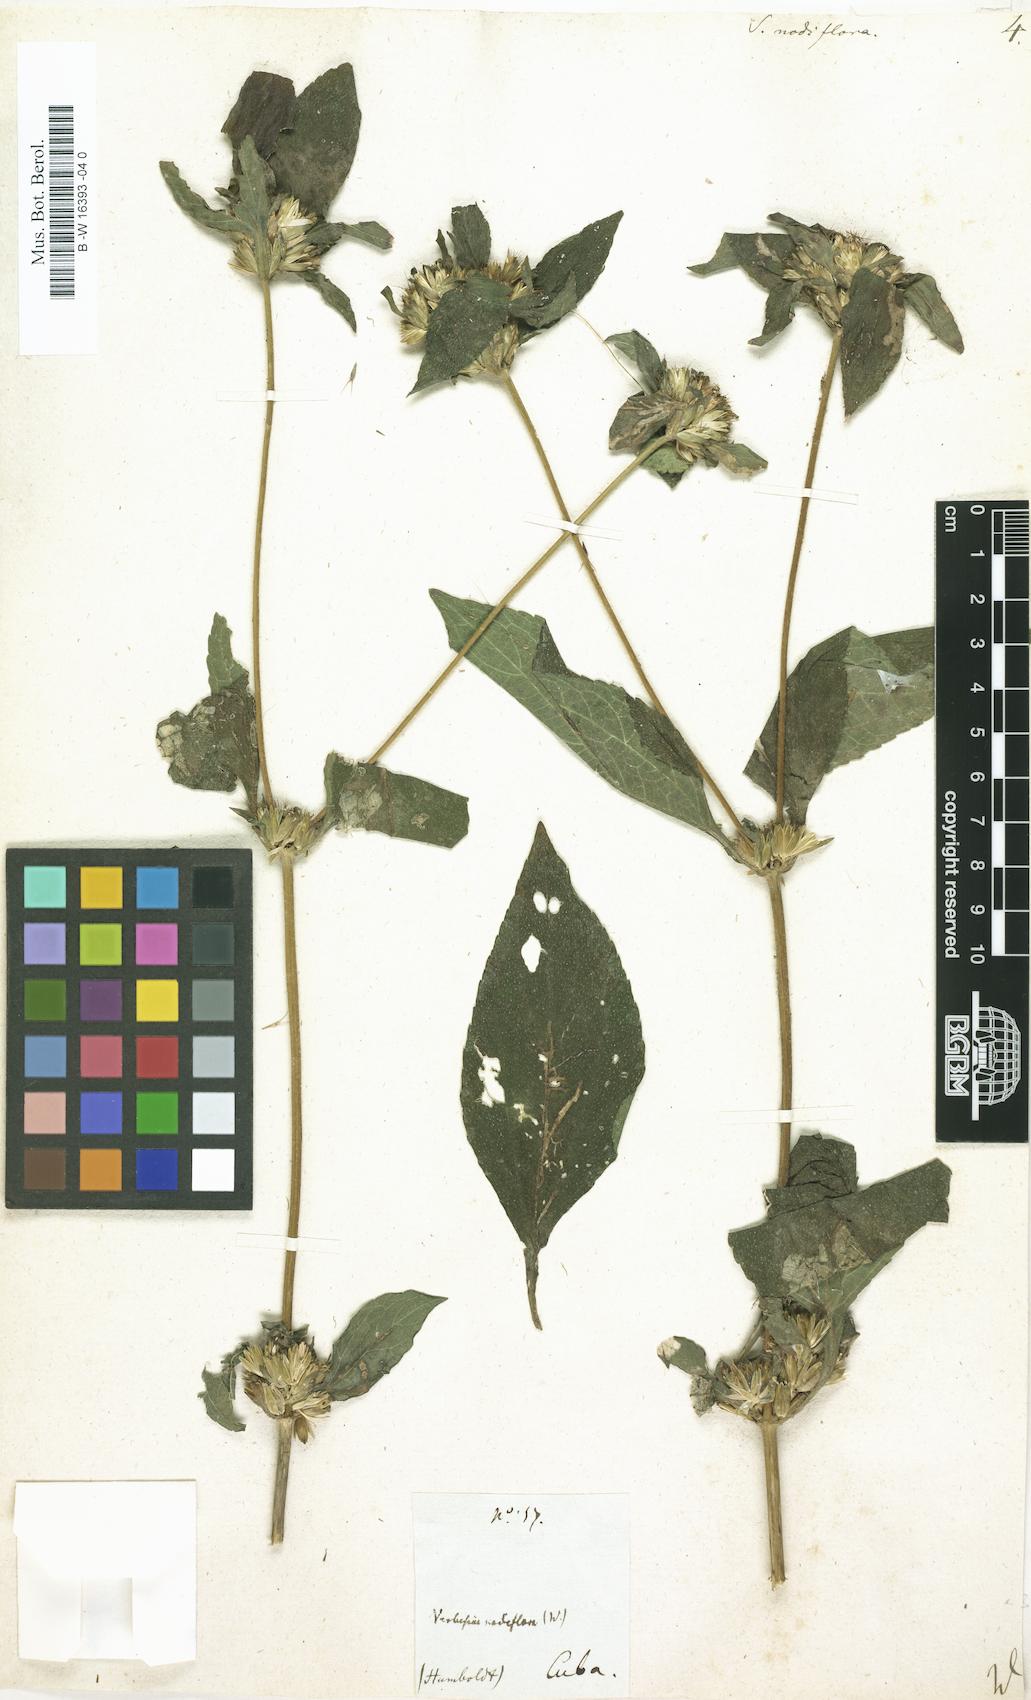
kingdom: Plantae
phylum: Tracheophyta
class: Magnoliopsida
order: Asterales
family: Asteraceae
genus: Synedrella
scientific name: Synedrella nodiflora
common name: Nodeweed
